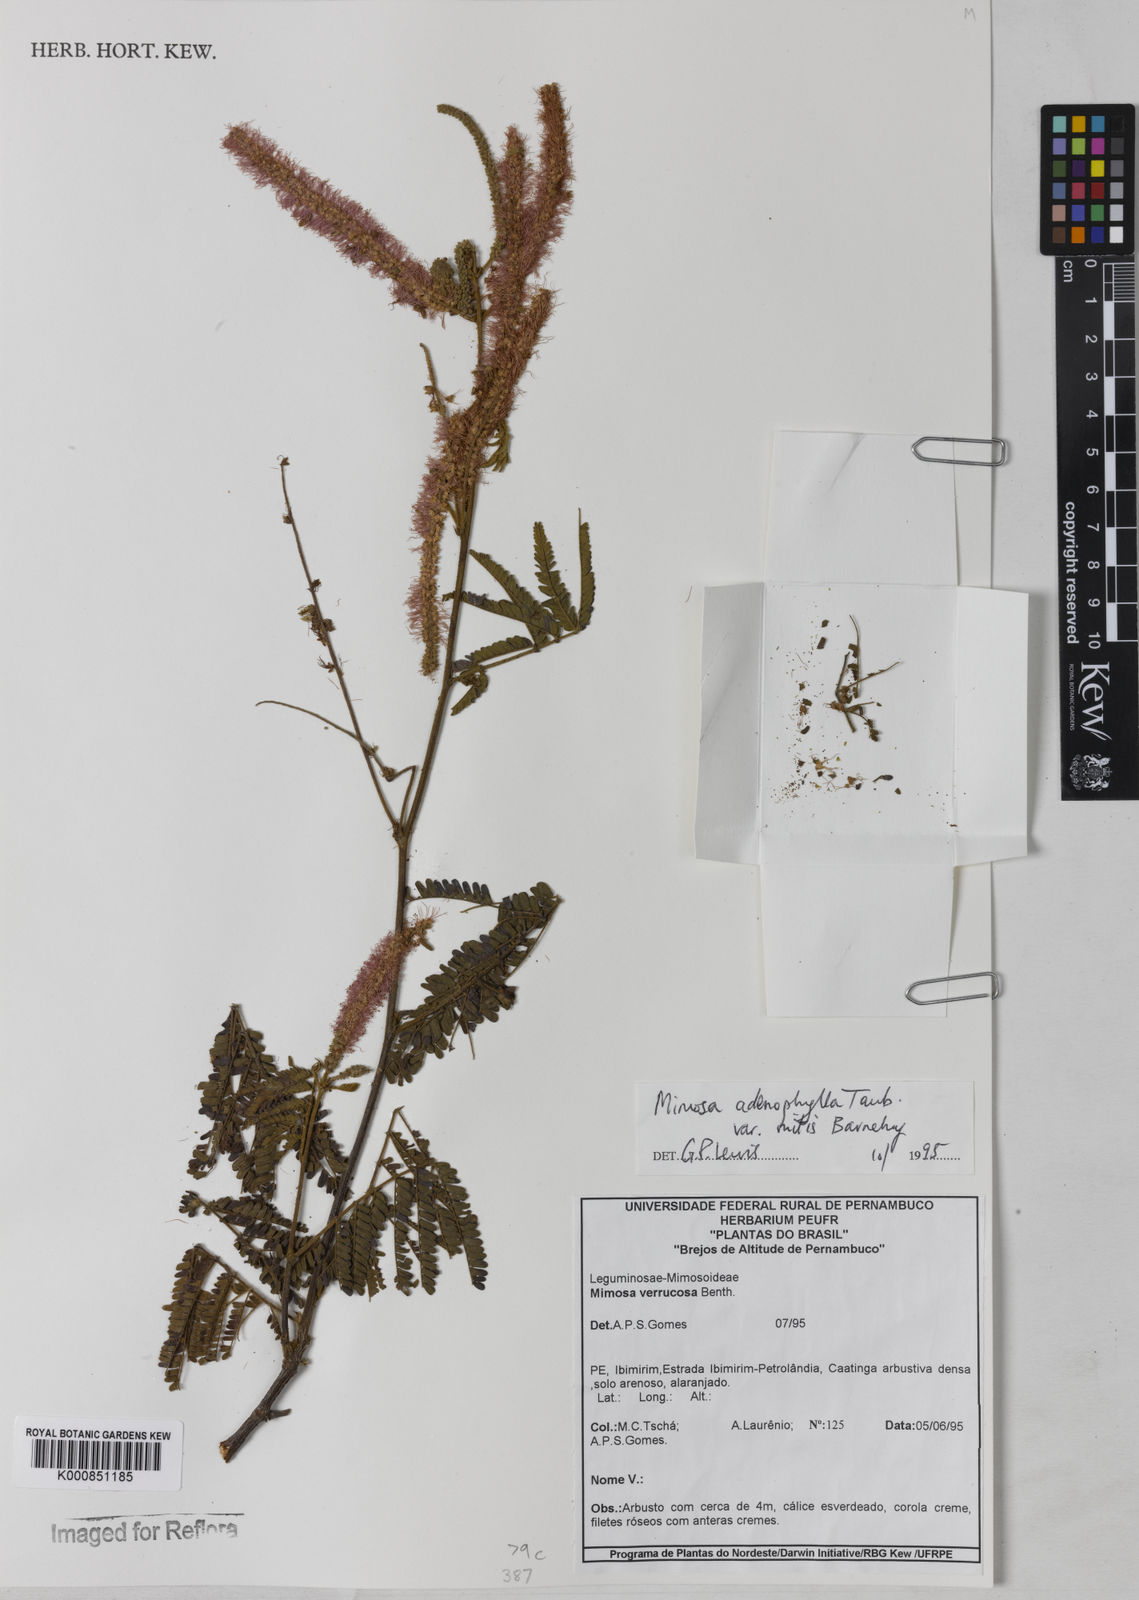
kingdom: Plantae
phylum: Tracheophyta
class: Magnoliopsida
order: Fabales
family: Fabaceae
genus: Mimosa
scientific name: Mimosa pteridifolia
